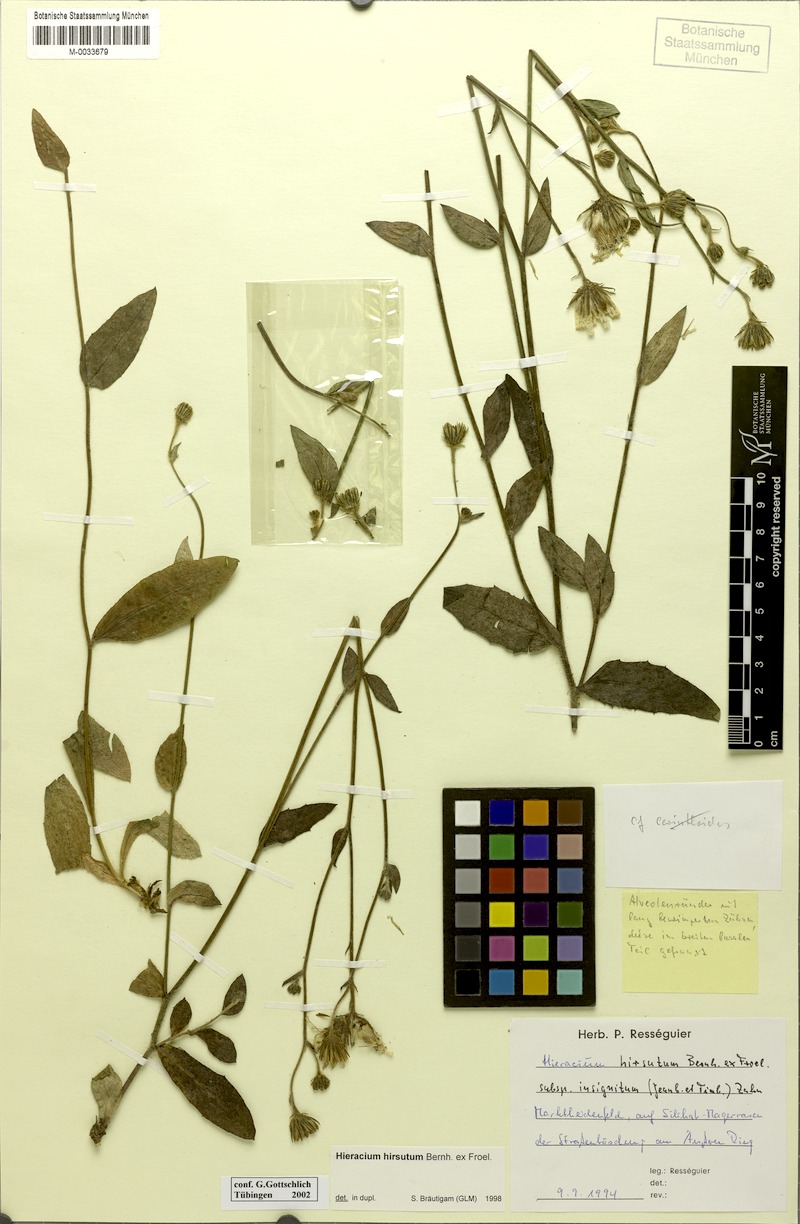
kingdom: Plantae
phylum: Tracheophyta
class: Magnoliopsida
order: Asterales
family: Asteraceae
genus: Hieracium
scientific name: Hieracium hirsutum
